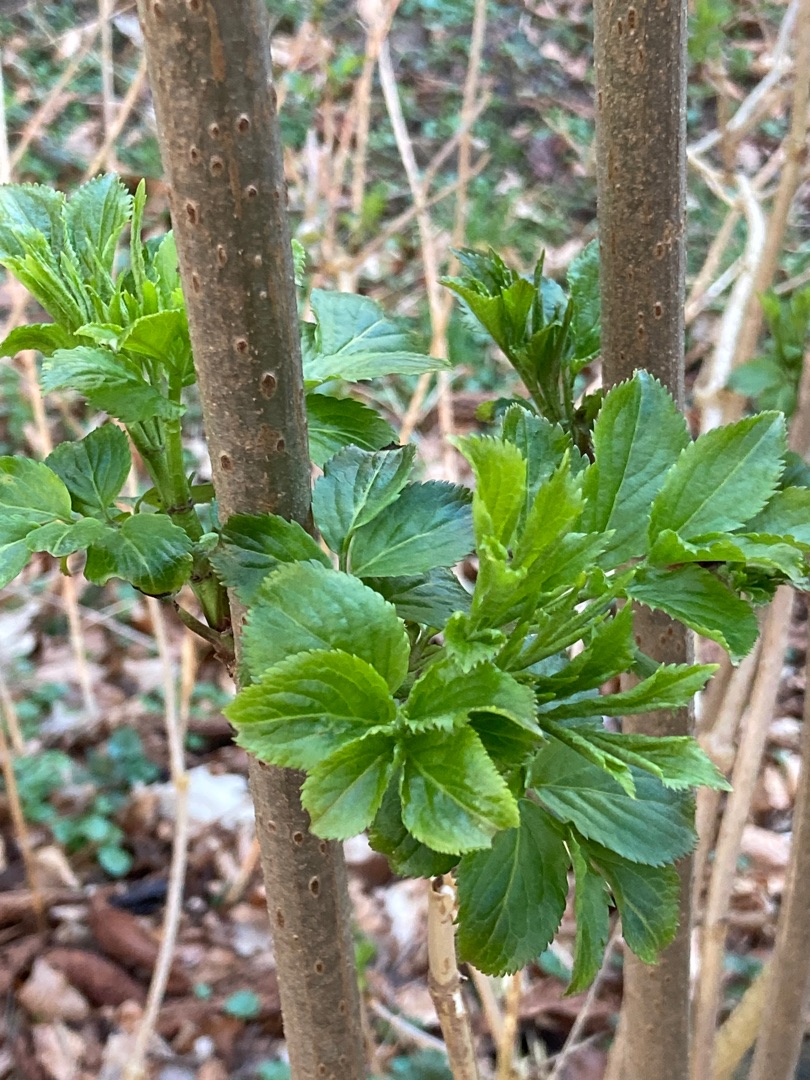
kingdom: Plantae
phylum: Tracheophyta
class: Magnoliopsida
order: Dipsacales
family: Viburnaceae
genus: Sambucus
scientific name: Sambucus nigra
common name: Almindelig hyld
